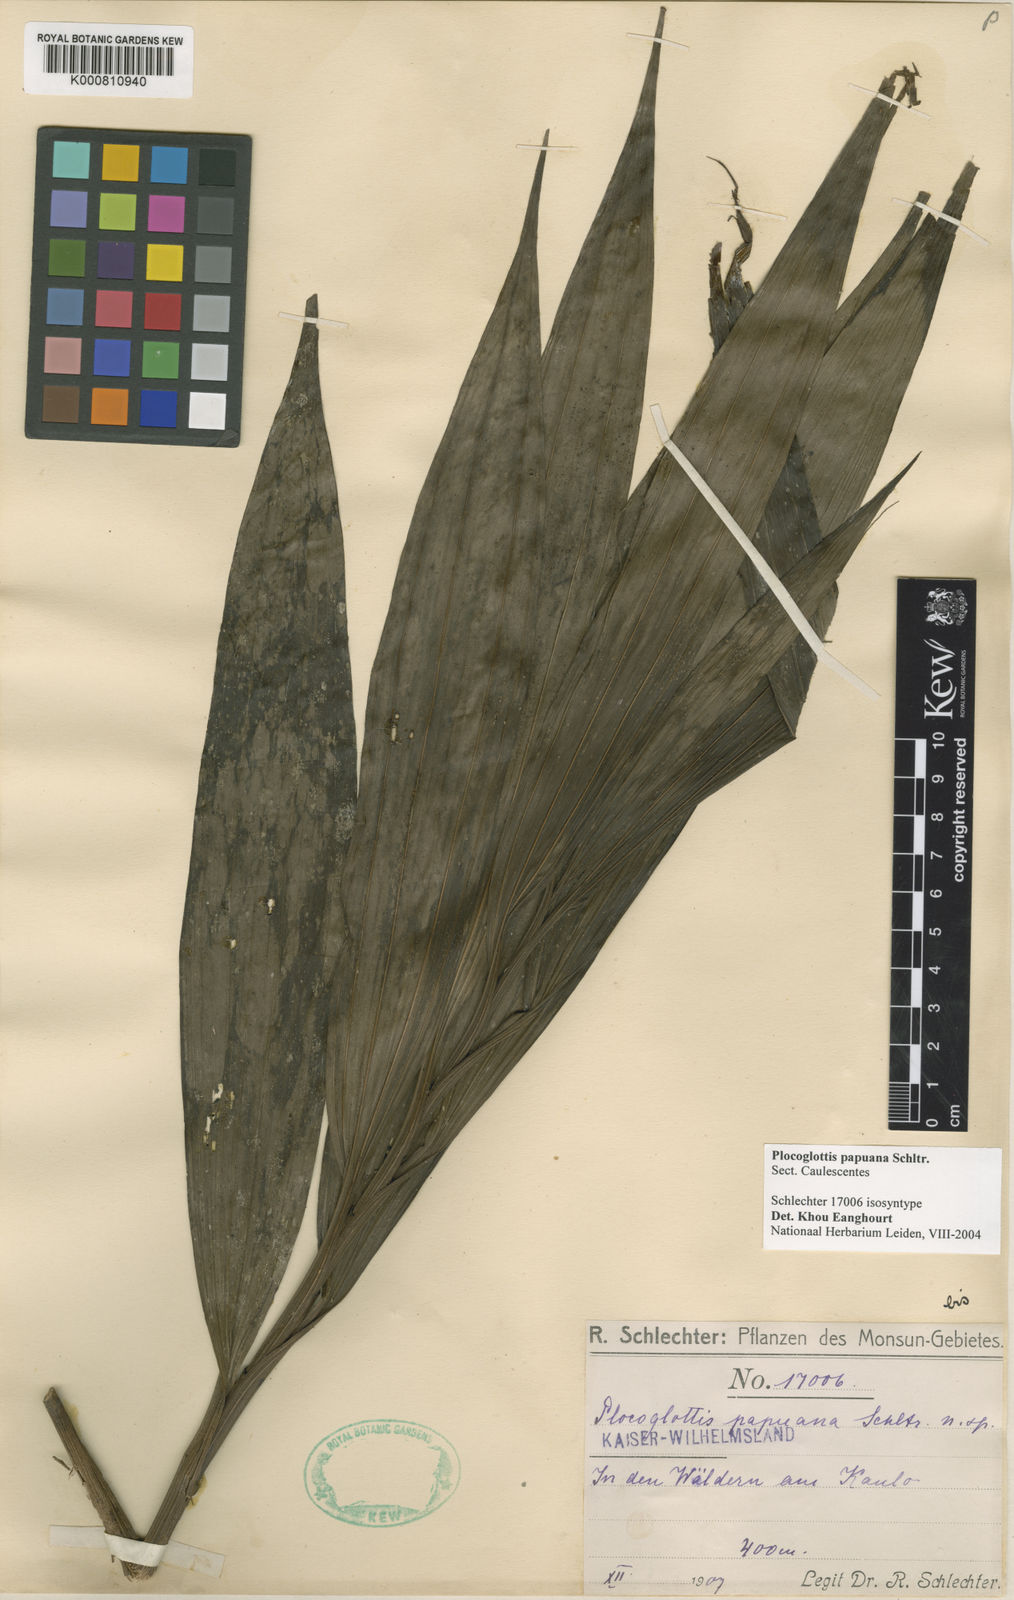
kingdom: Plantae
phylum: Tracheophyta
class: Liliopsida
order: Asparagales
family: Orchidaceae
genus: Plocoglottis
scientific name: Plocoglottis kaniensis
